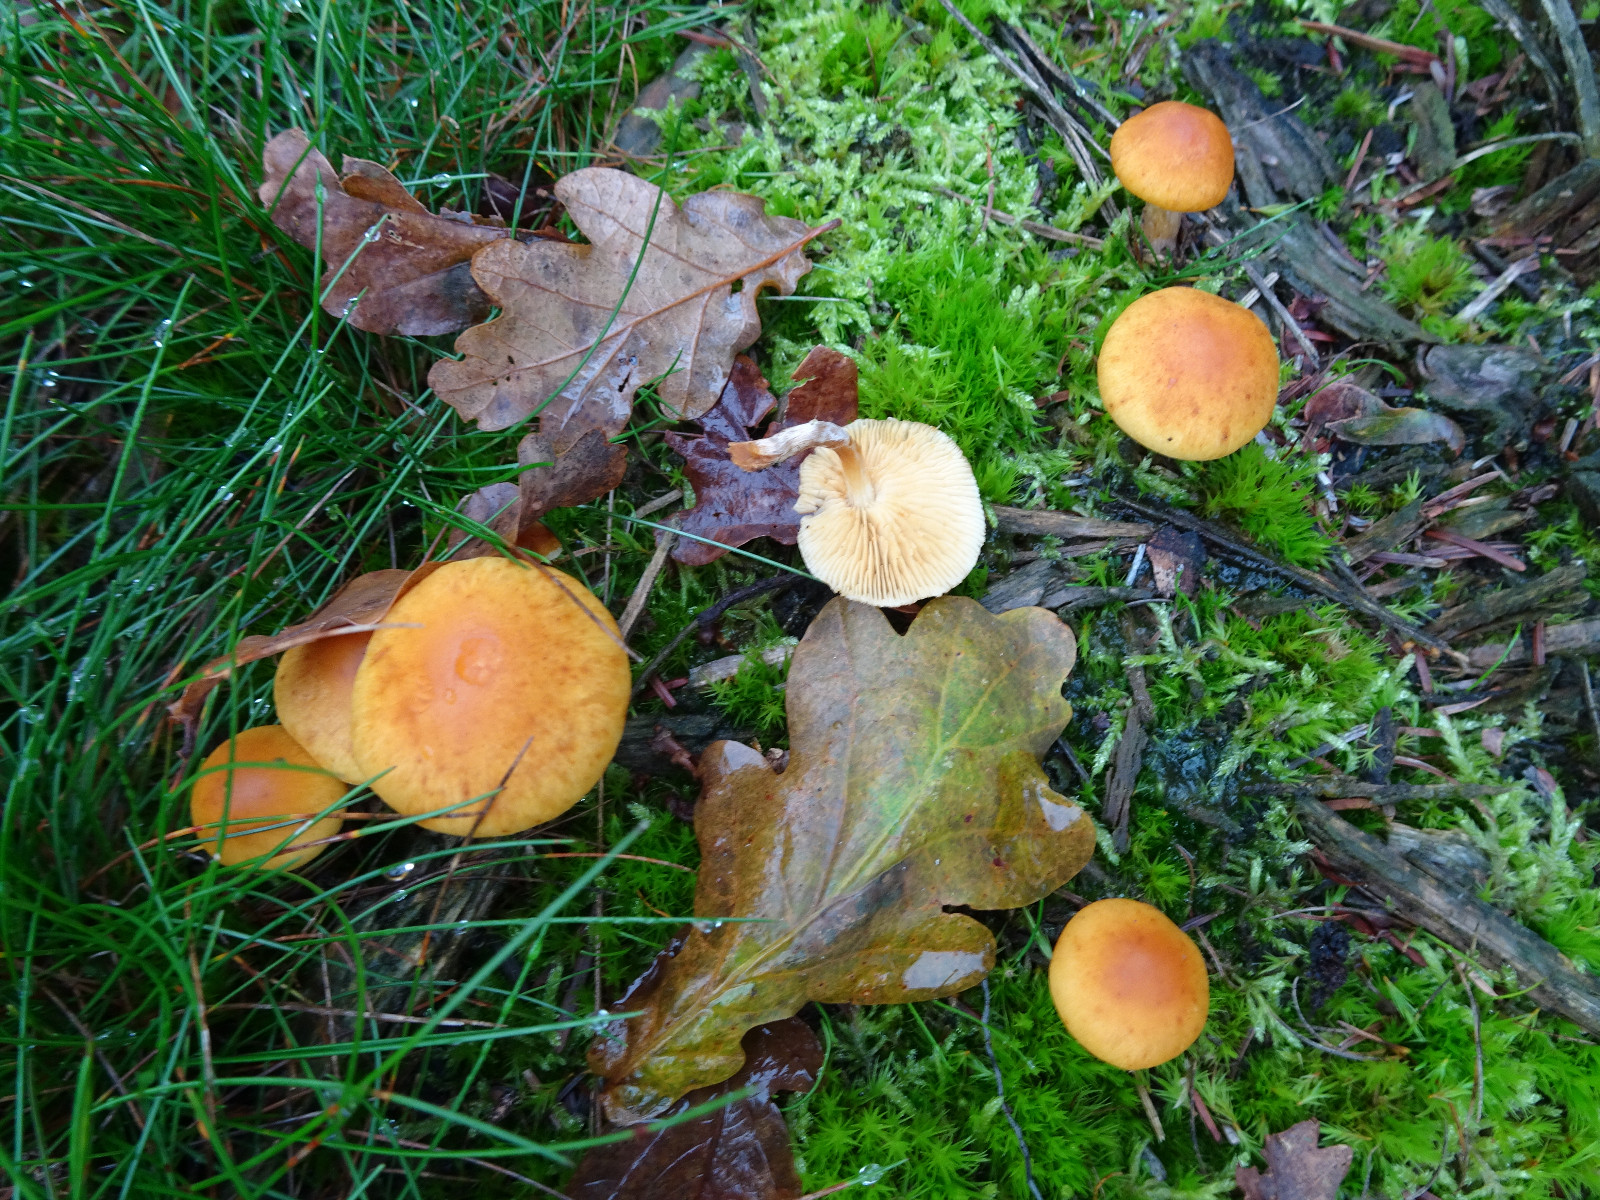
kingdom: Fungi
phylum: Basidiomycota
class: Agaricomycetes
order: Agaricales
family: Hymenogastraceae
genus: Gymnopilus
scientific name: Gymnopilus penetrans
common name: plettet flammehat
